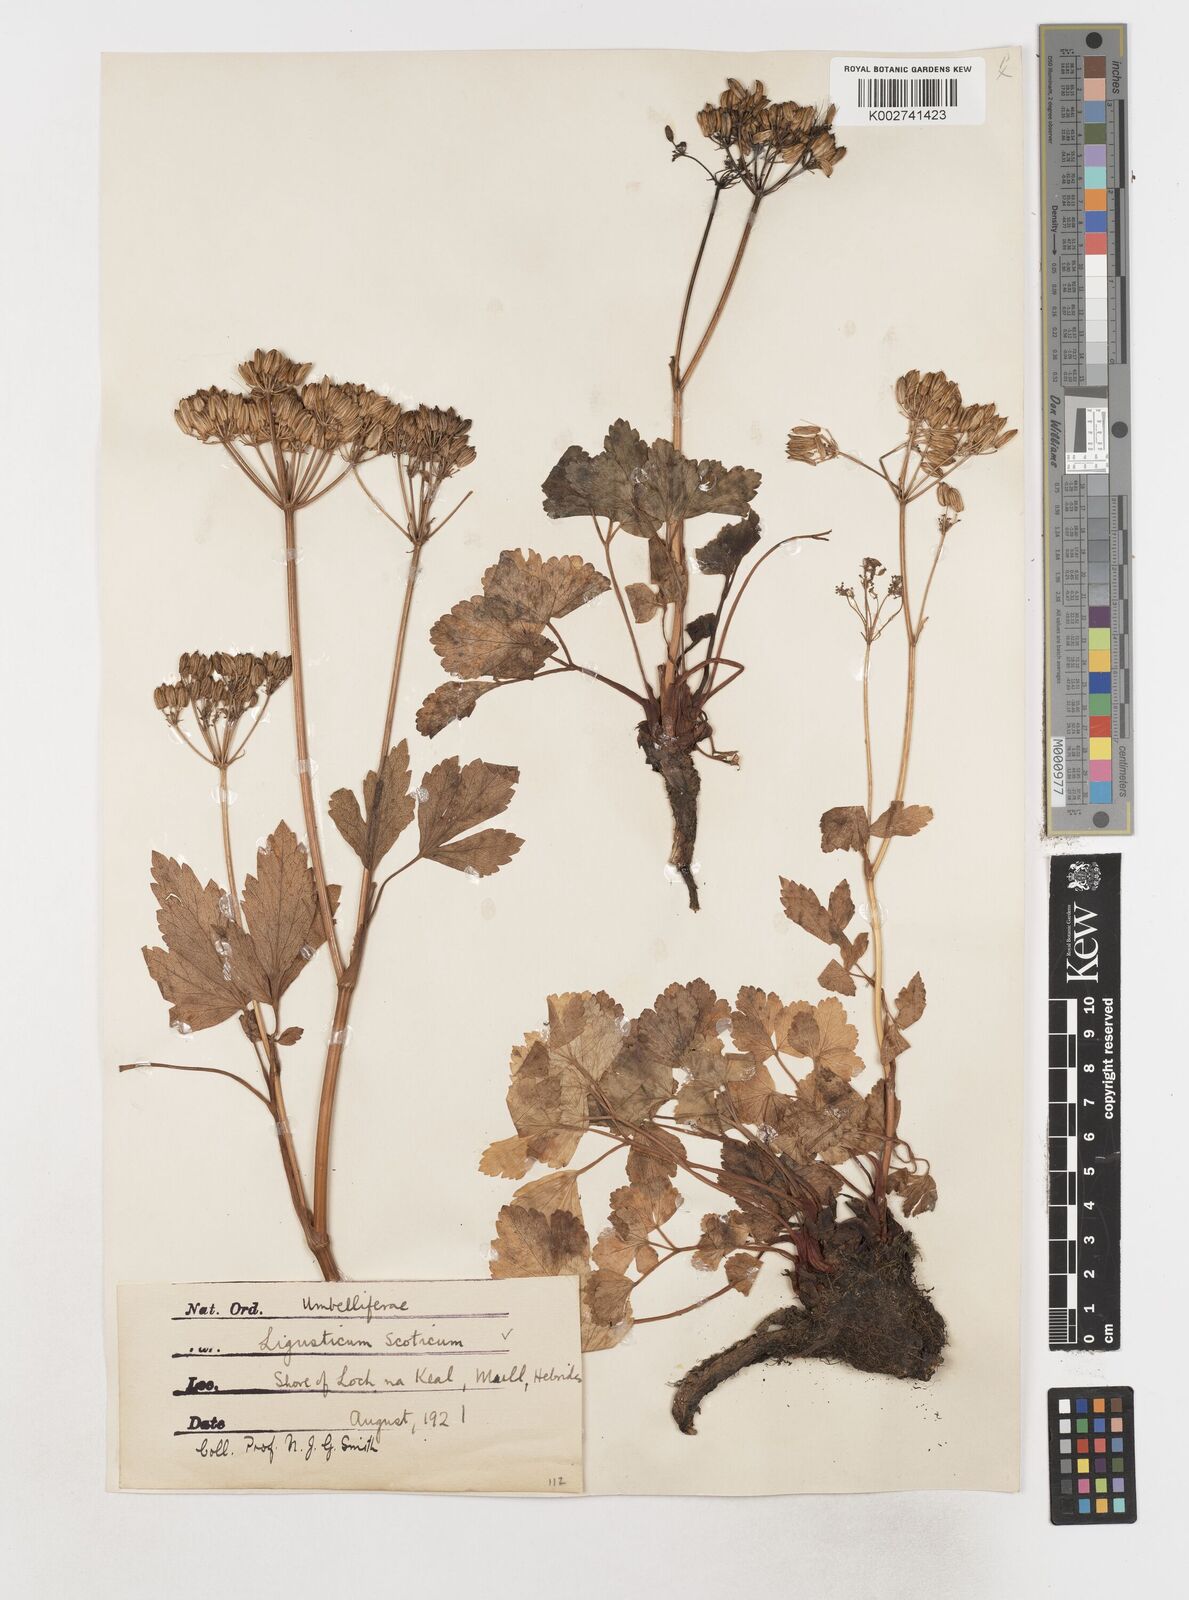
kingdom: Plantae
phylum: Tracheophyta
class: Magnoliopsida
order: Apiales
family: Apiaceae
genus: Ligusticum
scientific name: Ligusticum scothicum
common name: Beach lovage
